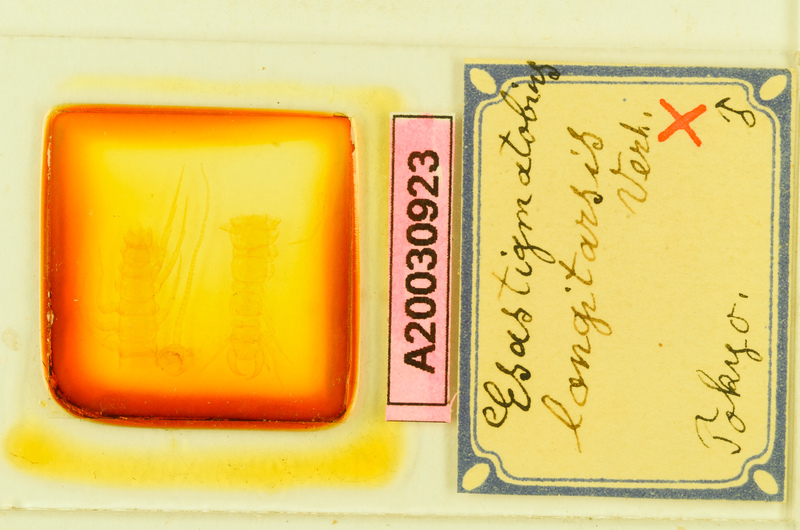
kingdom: Animalia
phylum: Arthropoda
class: Chilopoda
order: Lithobiomorpha
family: Henicopidae
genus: Cermatobius
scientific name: Cermatobius longitarsis
